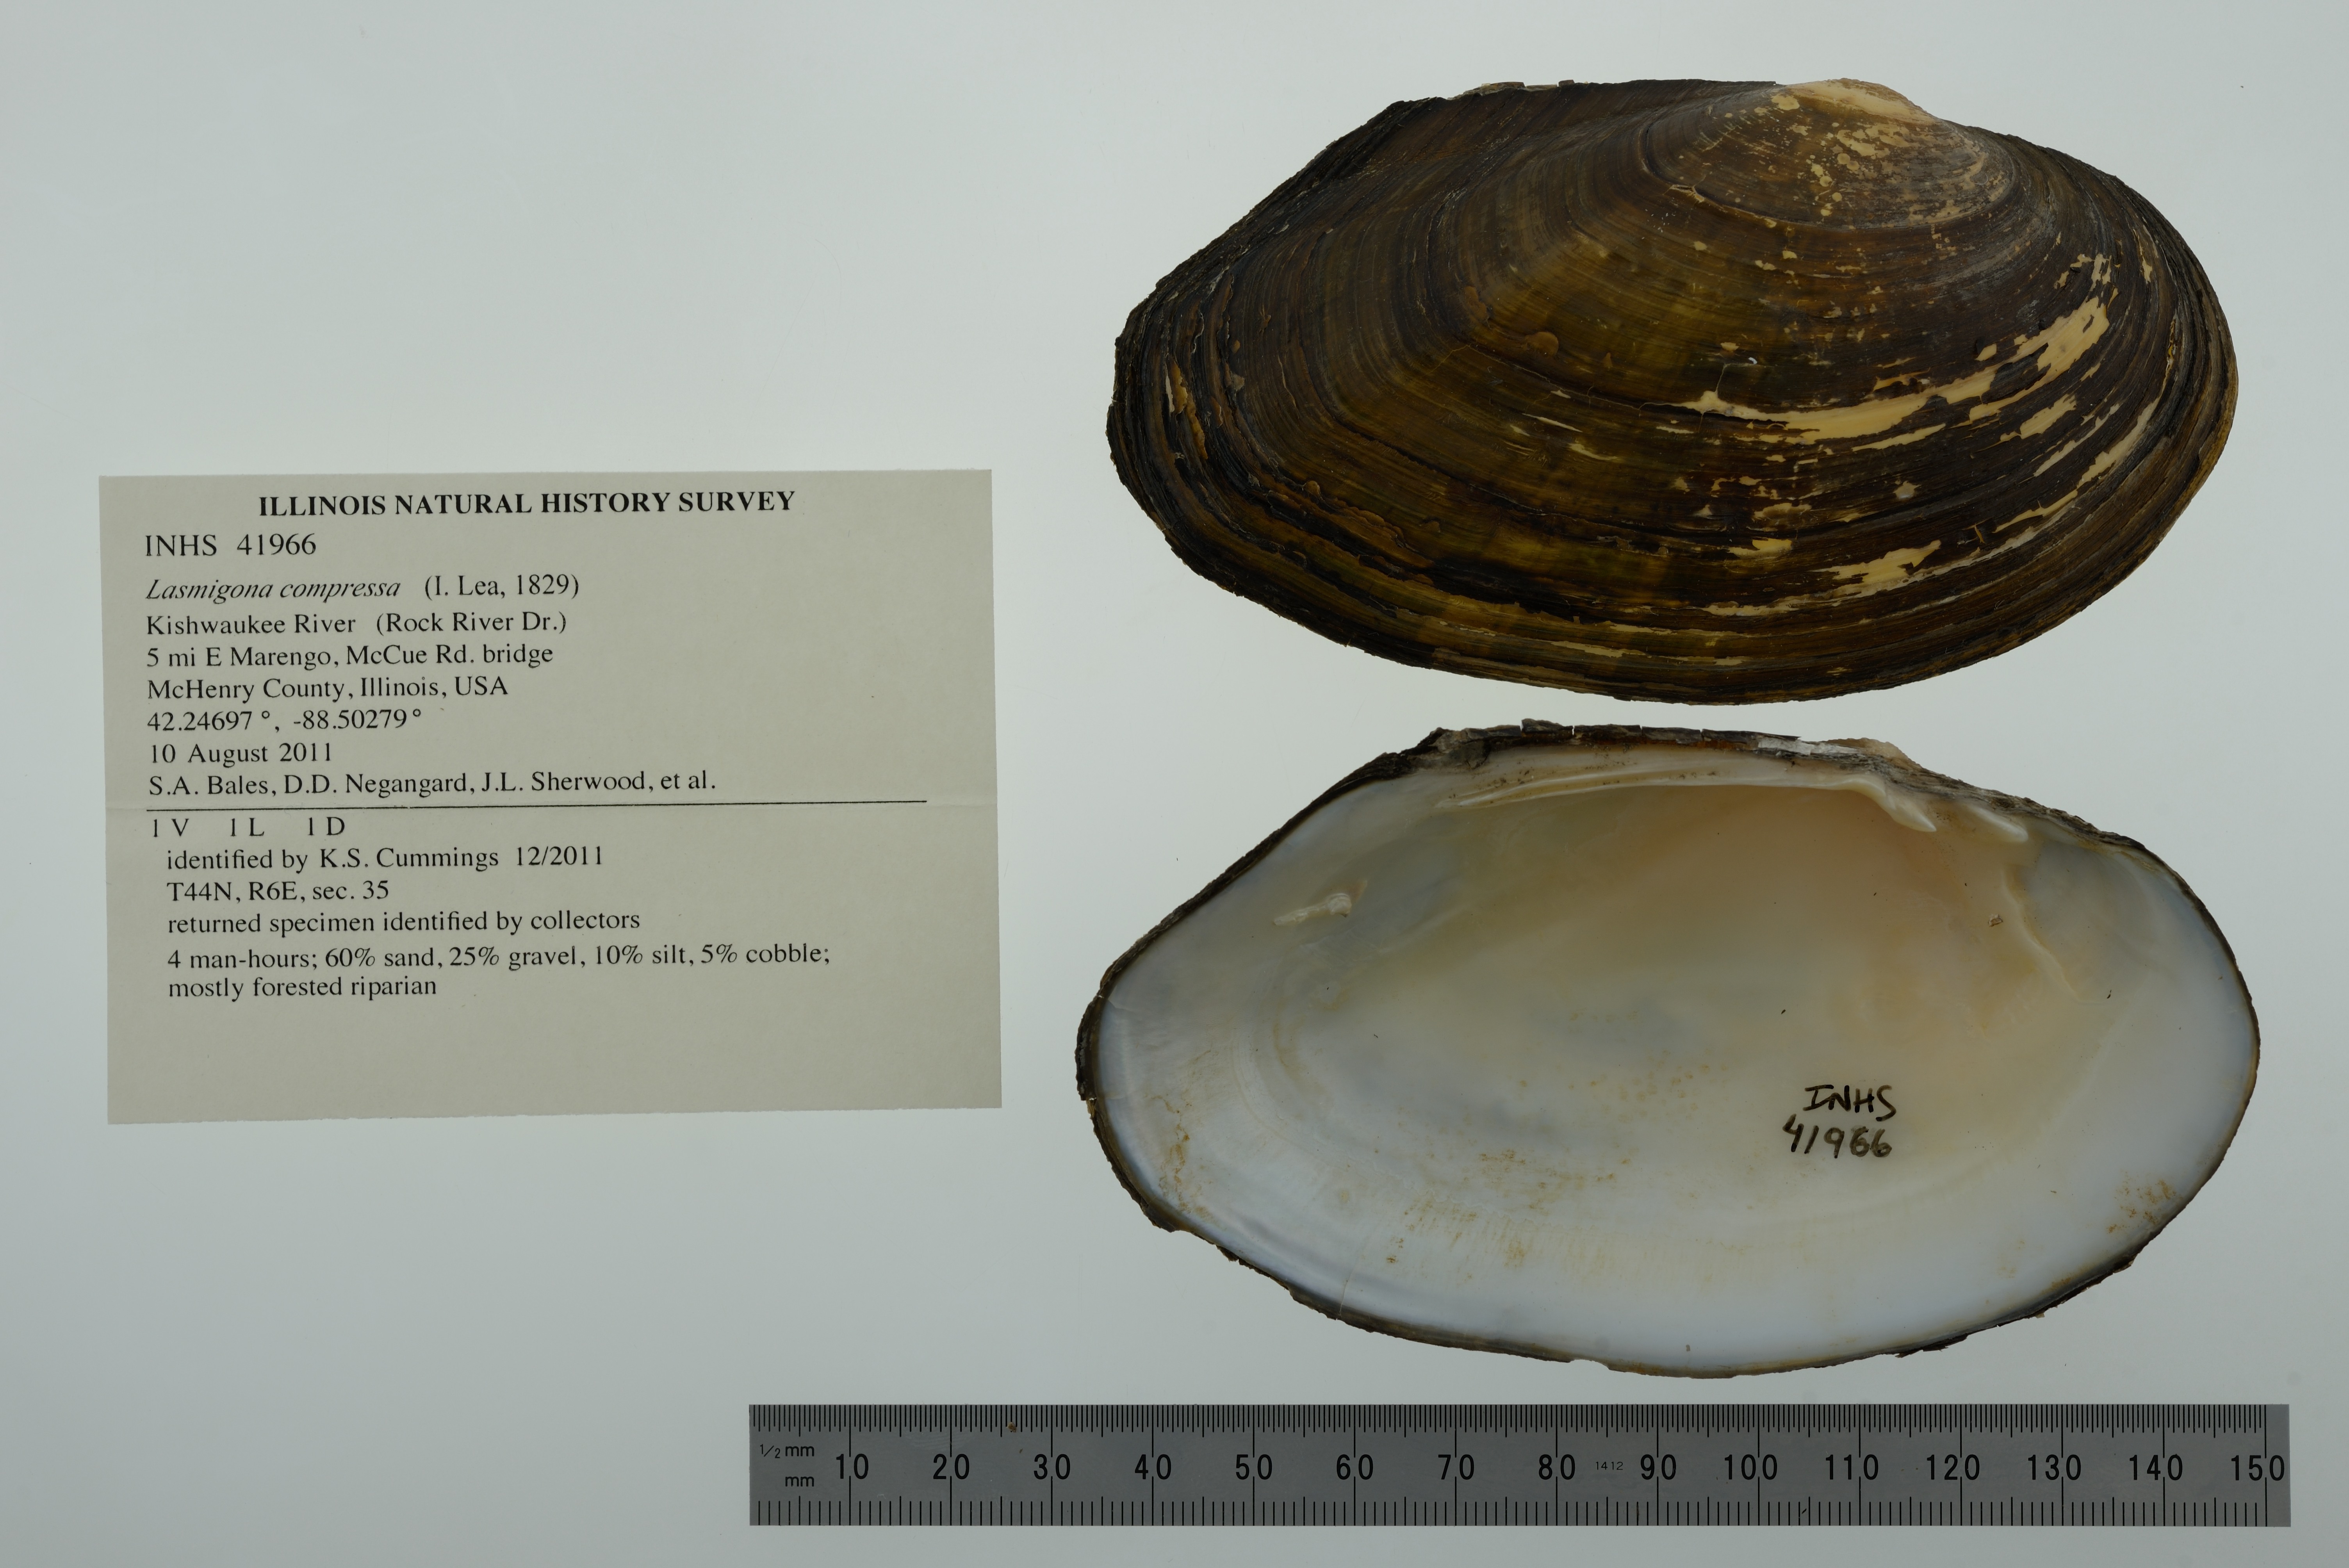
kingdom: Animalia
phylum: Mollusca
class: Bivalvia
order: Unionida
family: Unionidae
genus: Lasmigona
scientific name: Lasmigona compressa
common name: Creek heelsplitter
